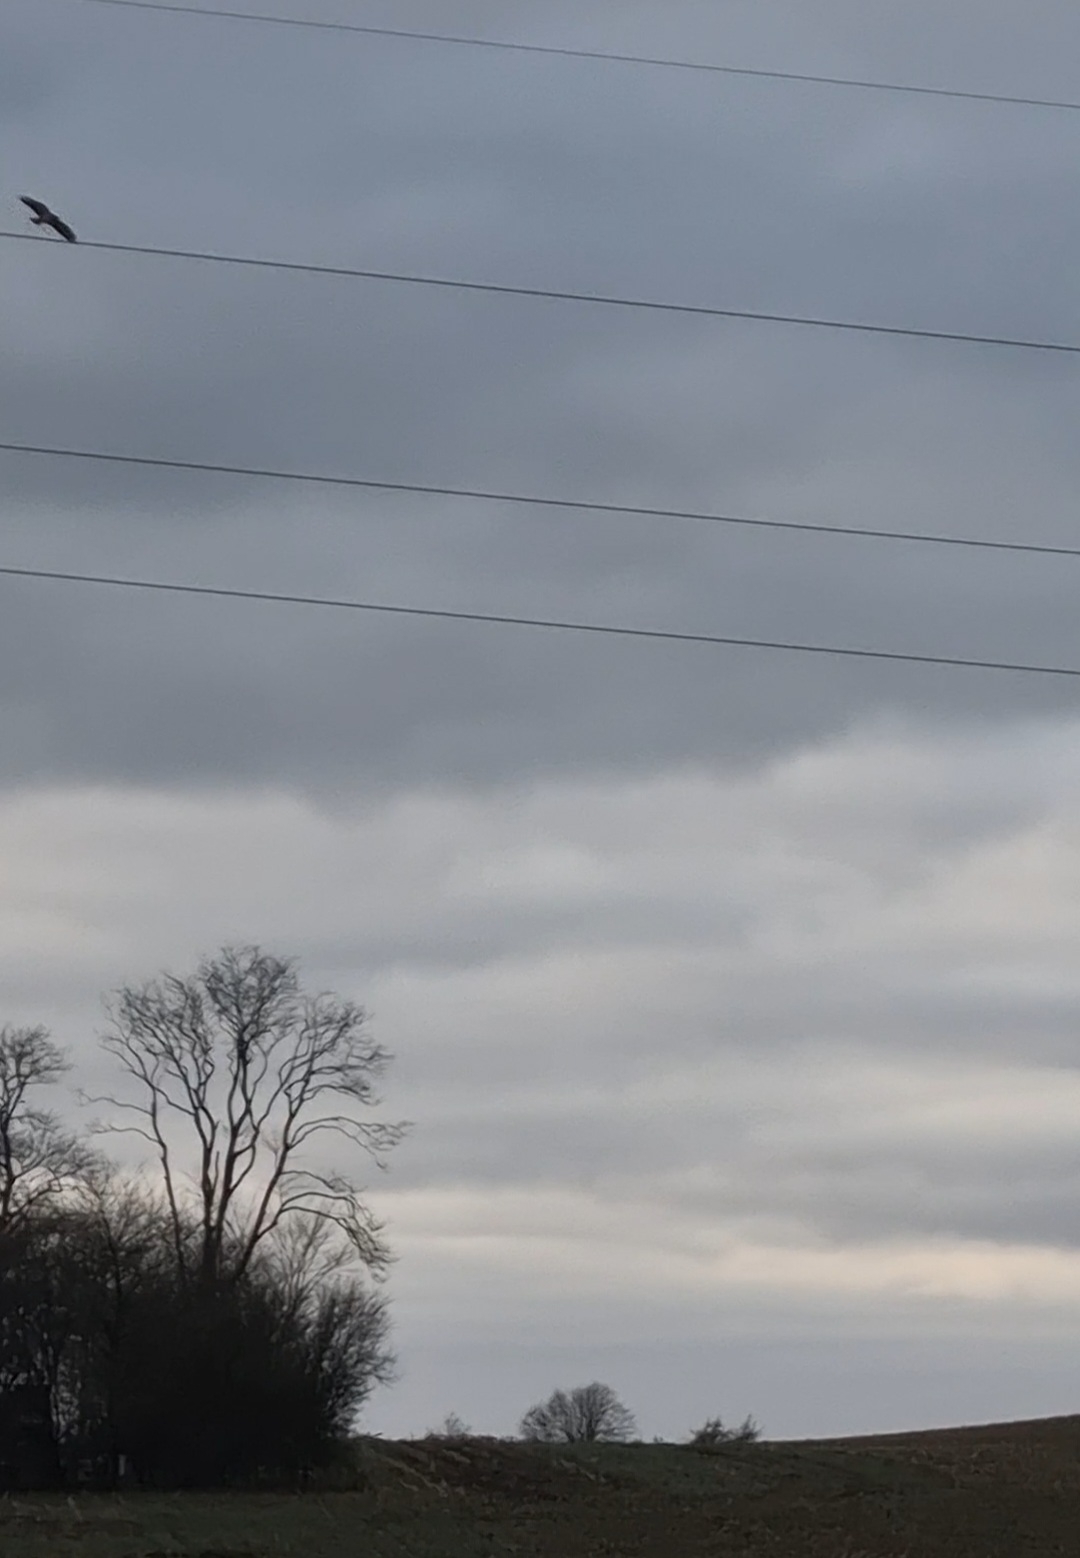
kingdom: Animalia
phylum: Chordata
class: Aves
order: Accipitriformes
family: Accipitridae
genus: Buteo
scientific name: Buteo buteo
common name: Musvåge
